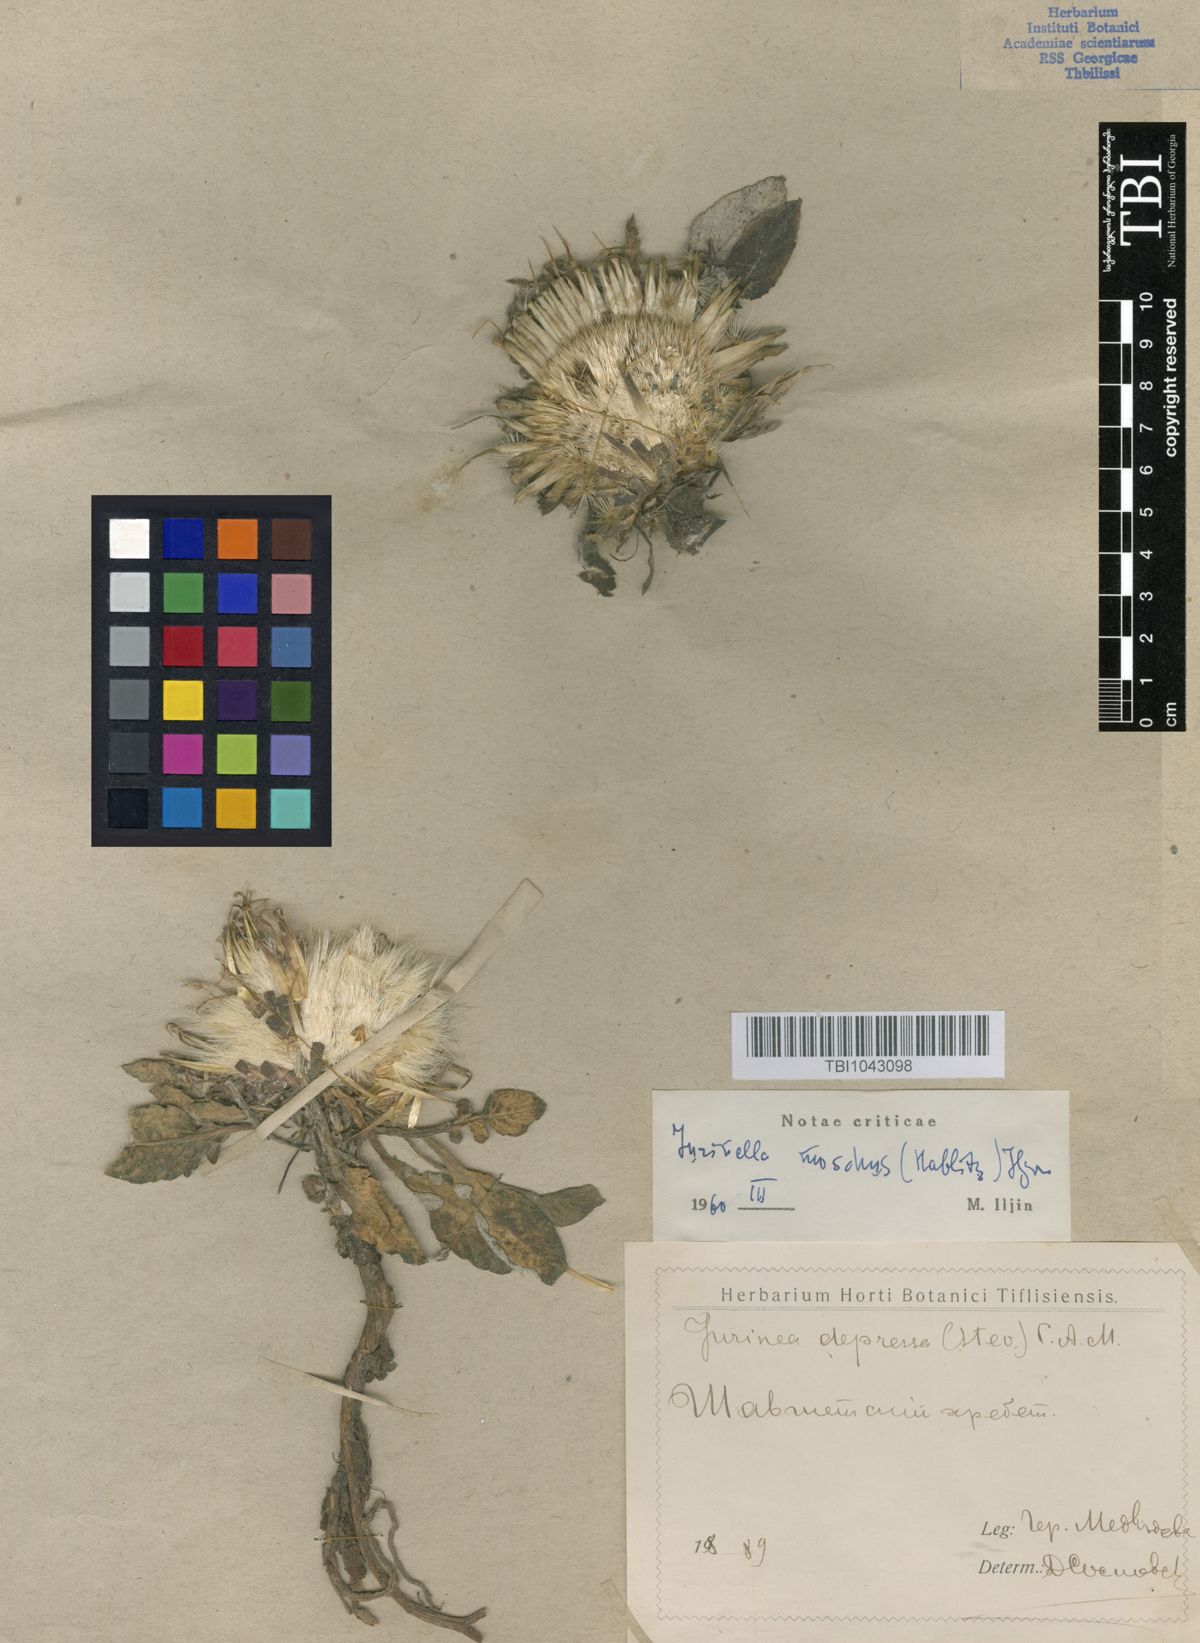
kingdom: Plantae
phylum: Tracheophyta
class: Magnoliopsida
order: Asterales
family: Asteraceae
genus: Jurinea
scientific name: Jurinea moschus
